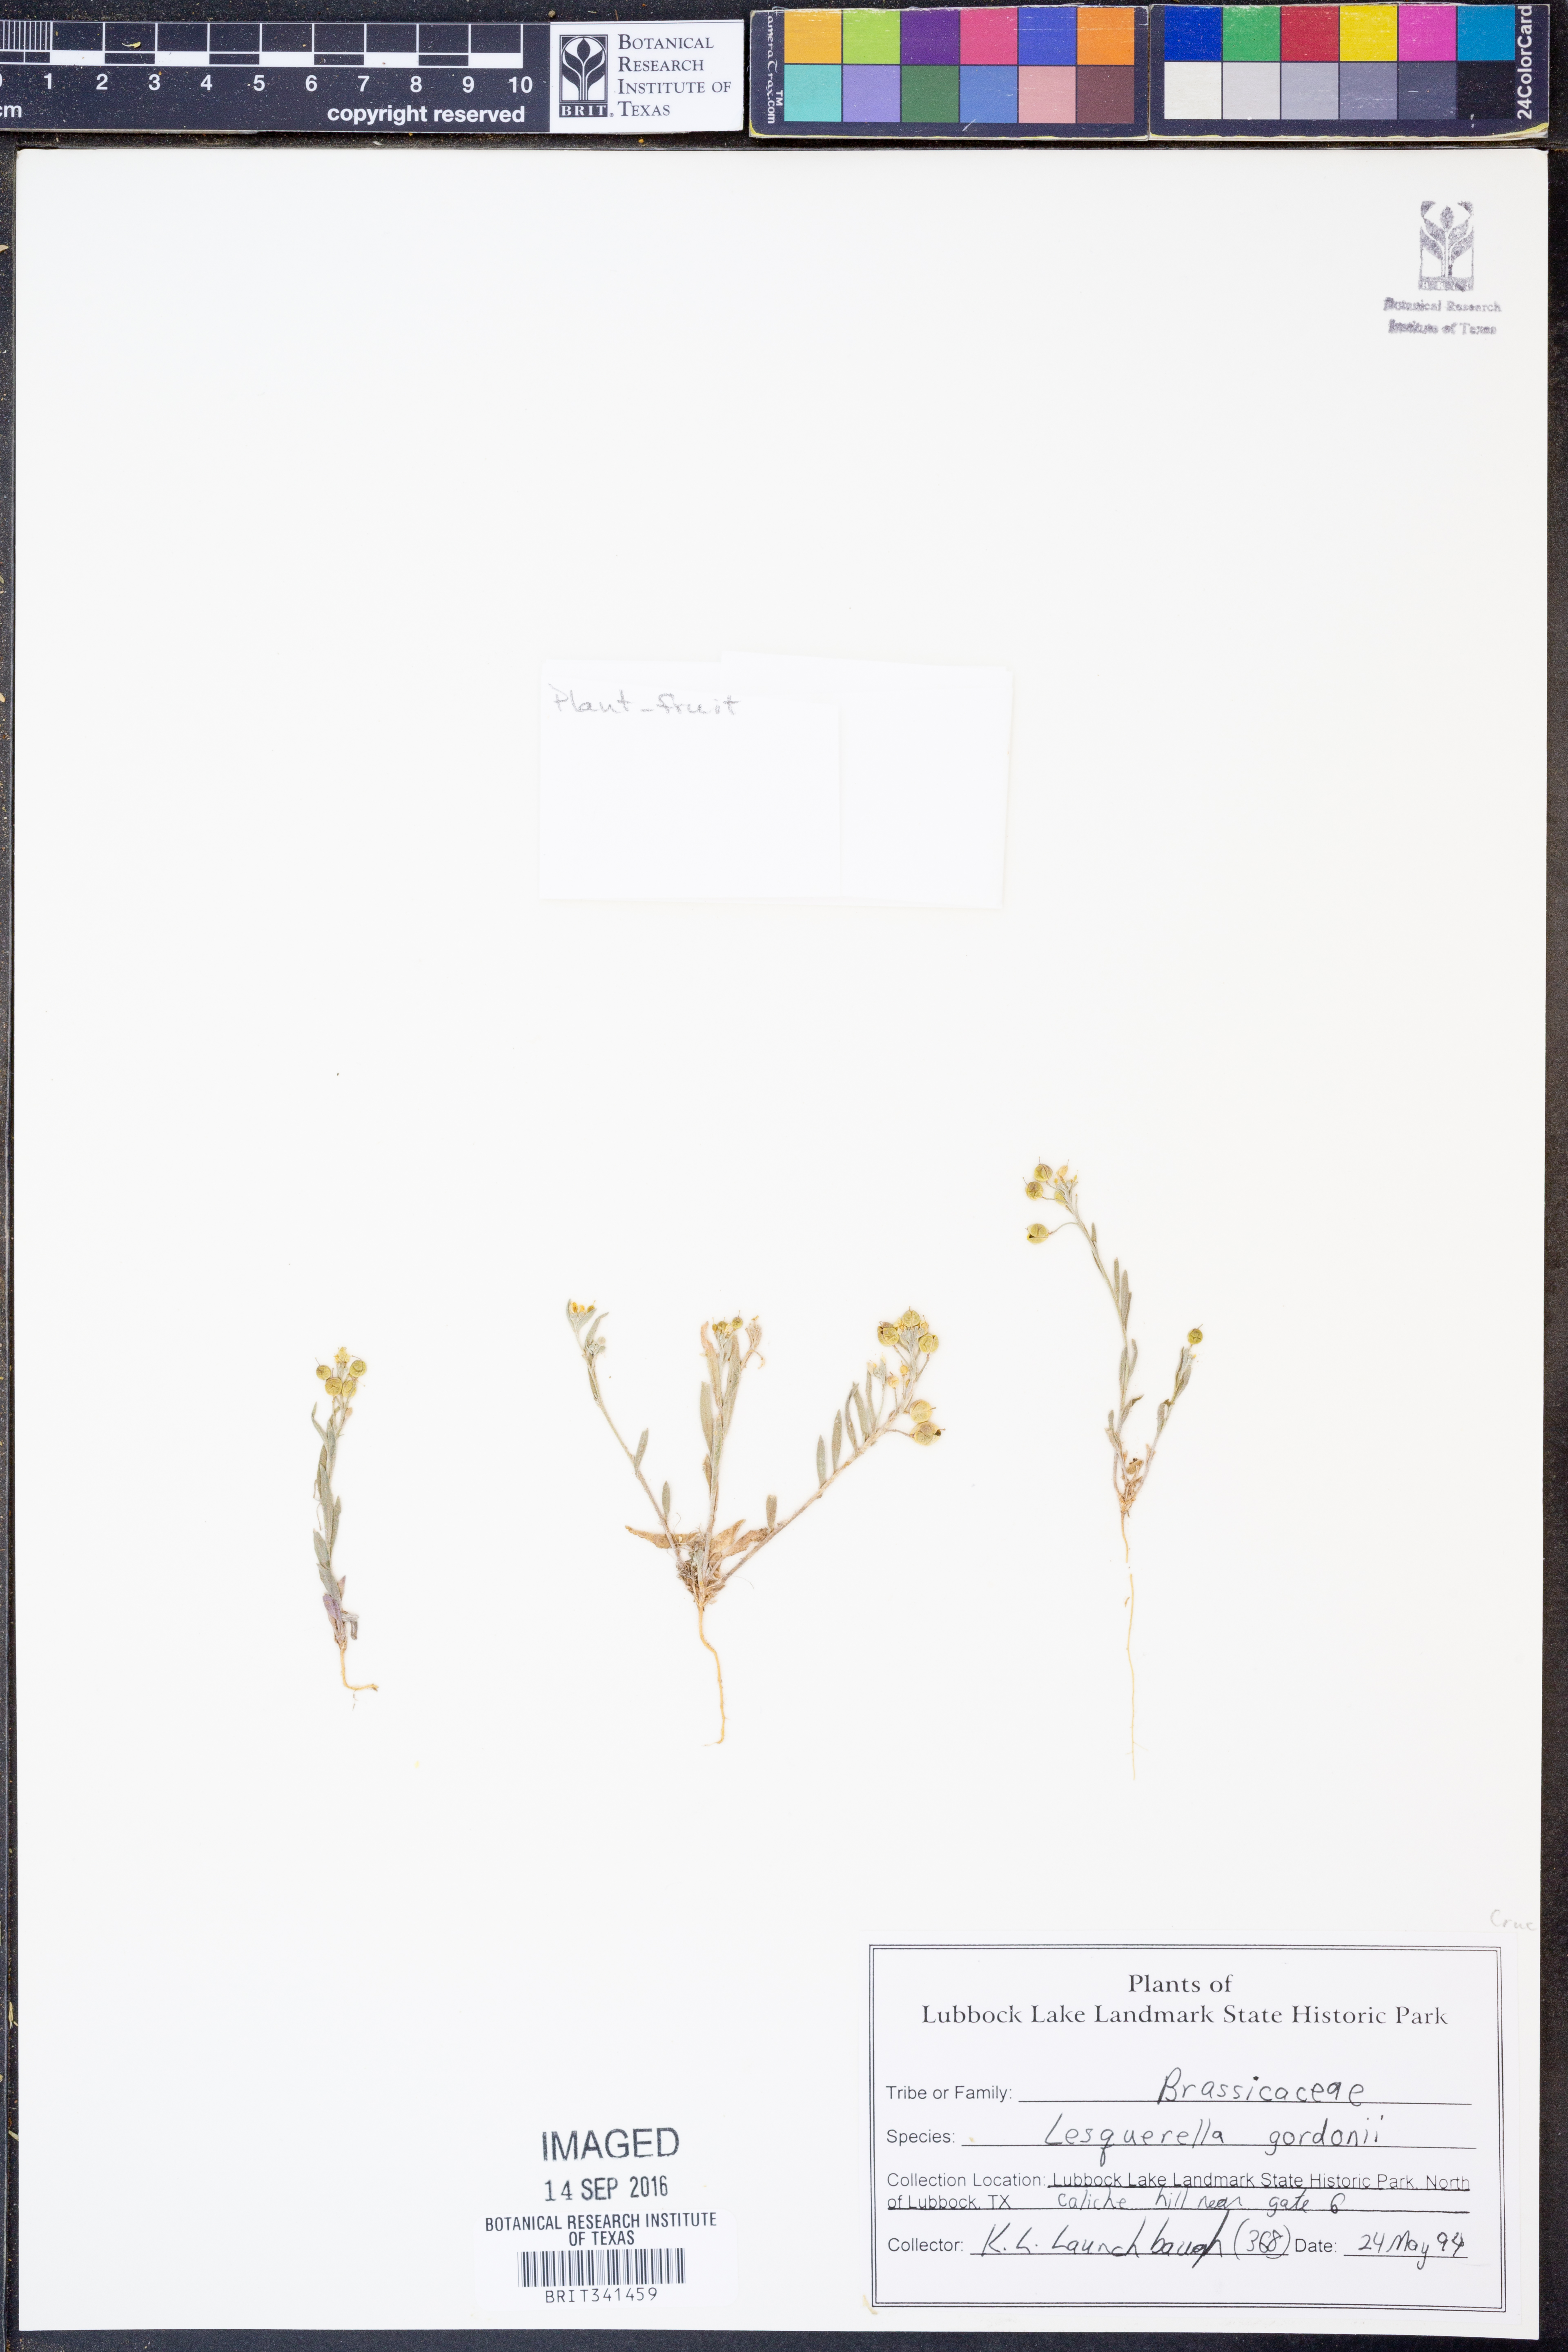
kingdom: Plantae
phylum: Tracheophyta
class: Magnoliopsida
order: Brassicales
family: Brassicaceae
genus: Physaria
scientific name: Physaria gordonii
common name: Gordon's bladderpod
